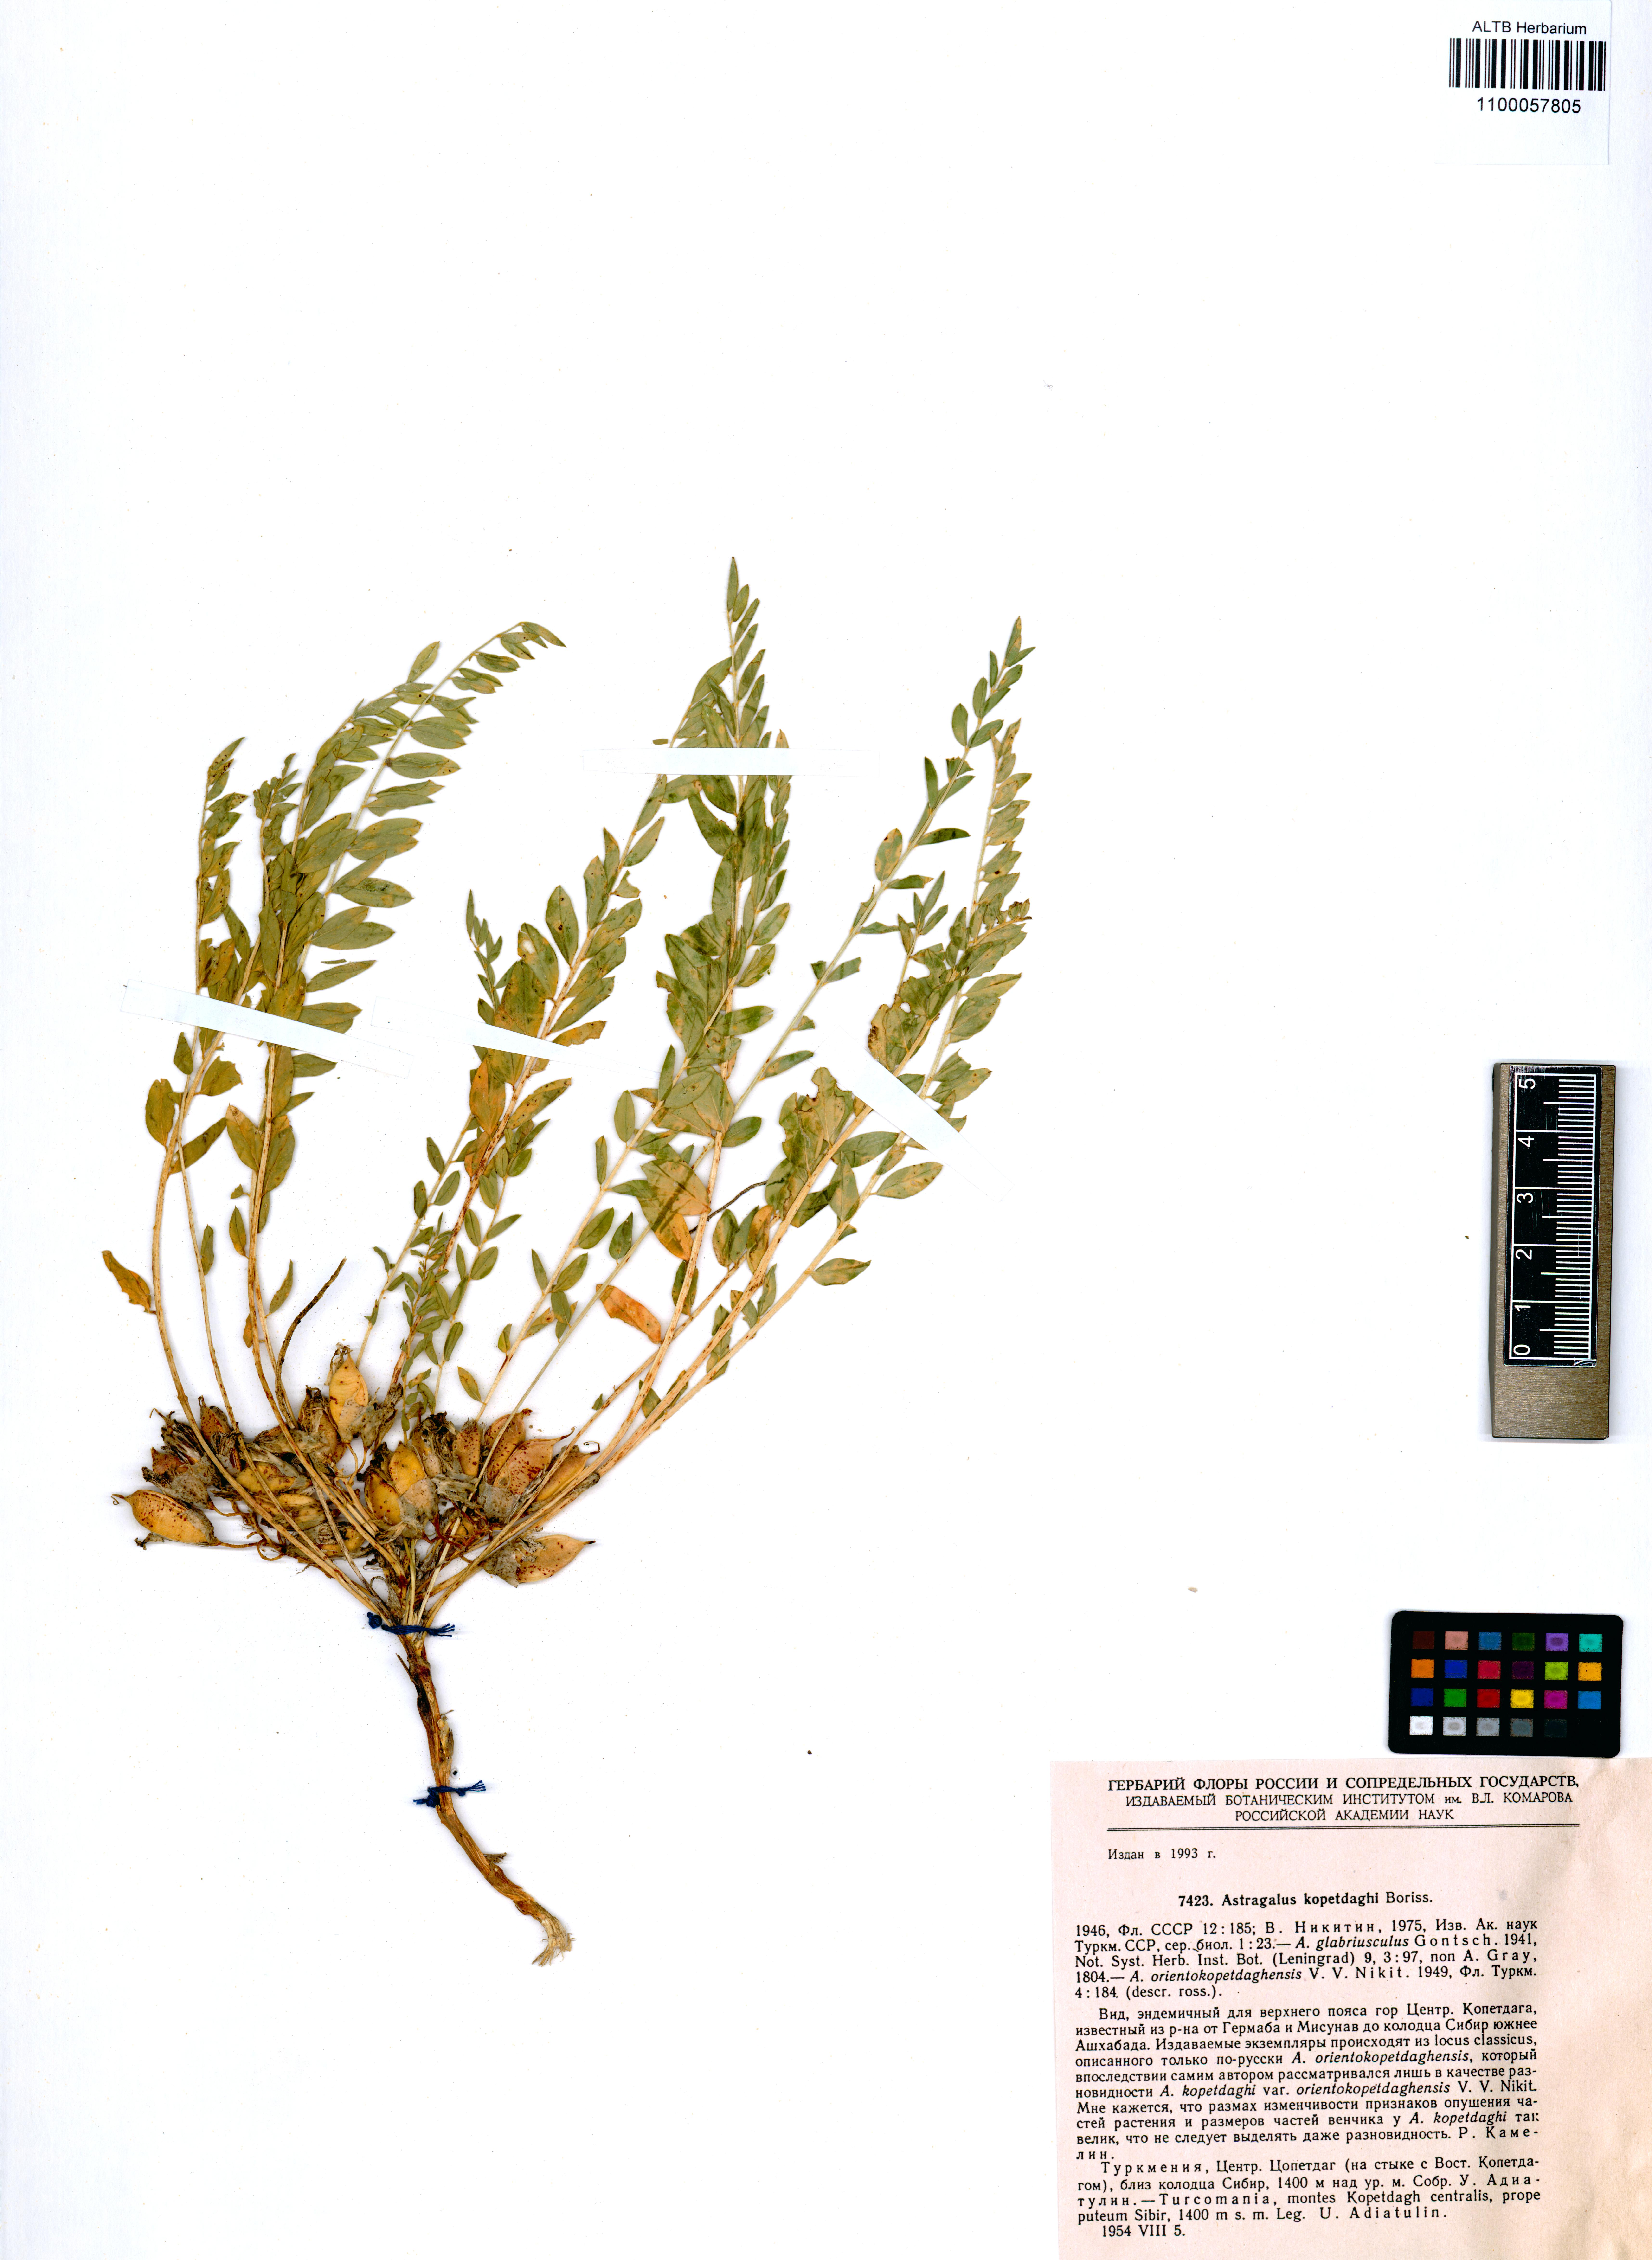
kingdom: Plantae
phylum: Tracheophyta
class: Magnoliopsida
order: Fabales
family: Fabaceae
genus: Astragalus
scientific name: Astragalus kopetdaghi
